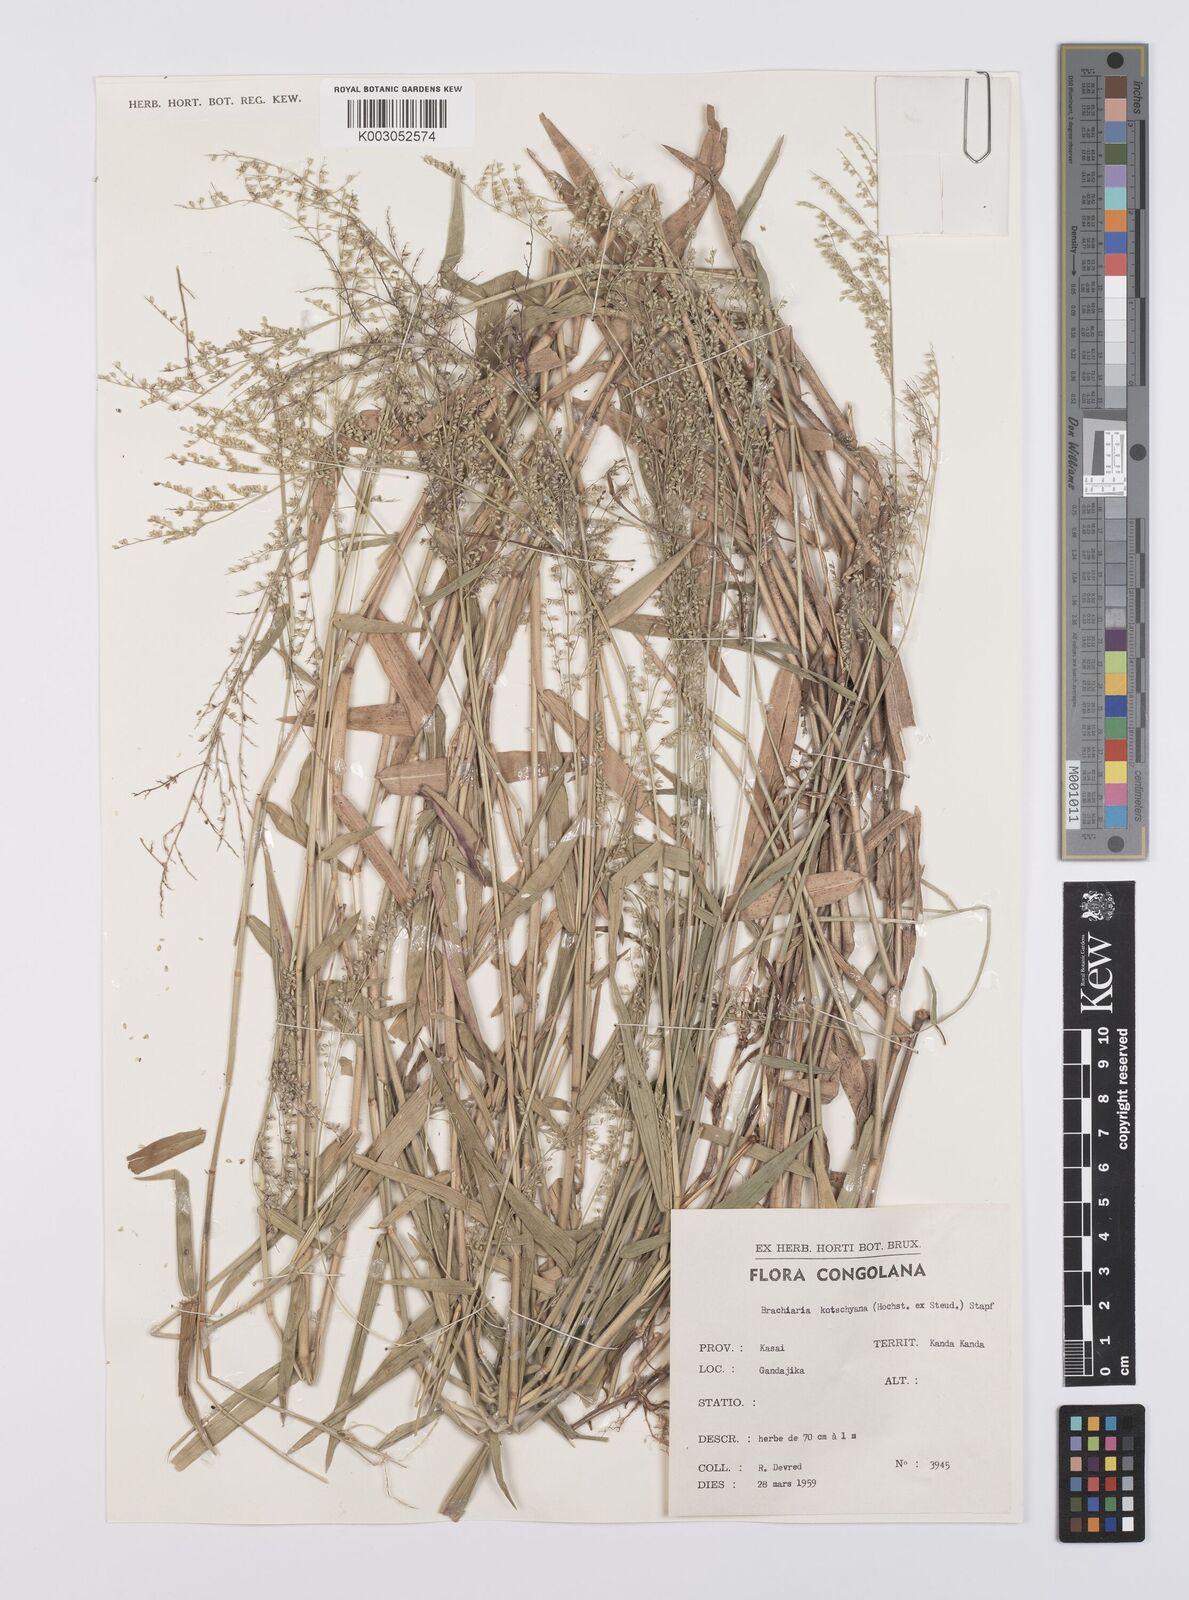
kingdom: Plantae
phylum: Tracheophyta
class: Liliopsida
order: Poales
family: Poaceae
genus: Urochloa
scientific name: Urochloa comata
